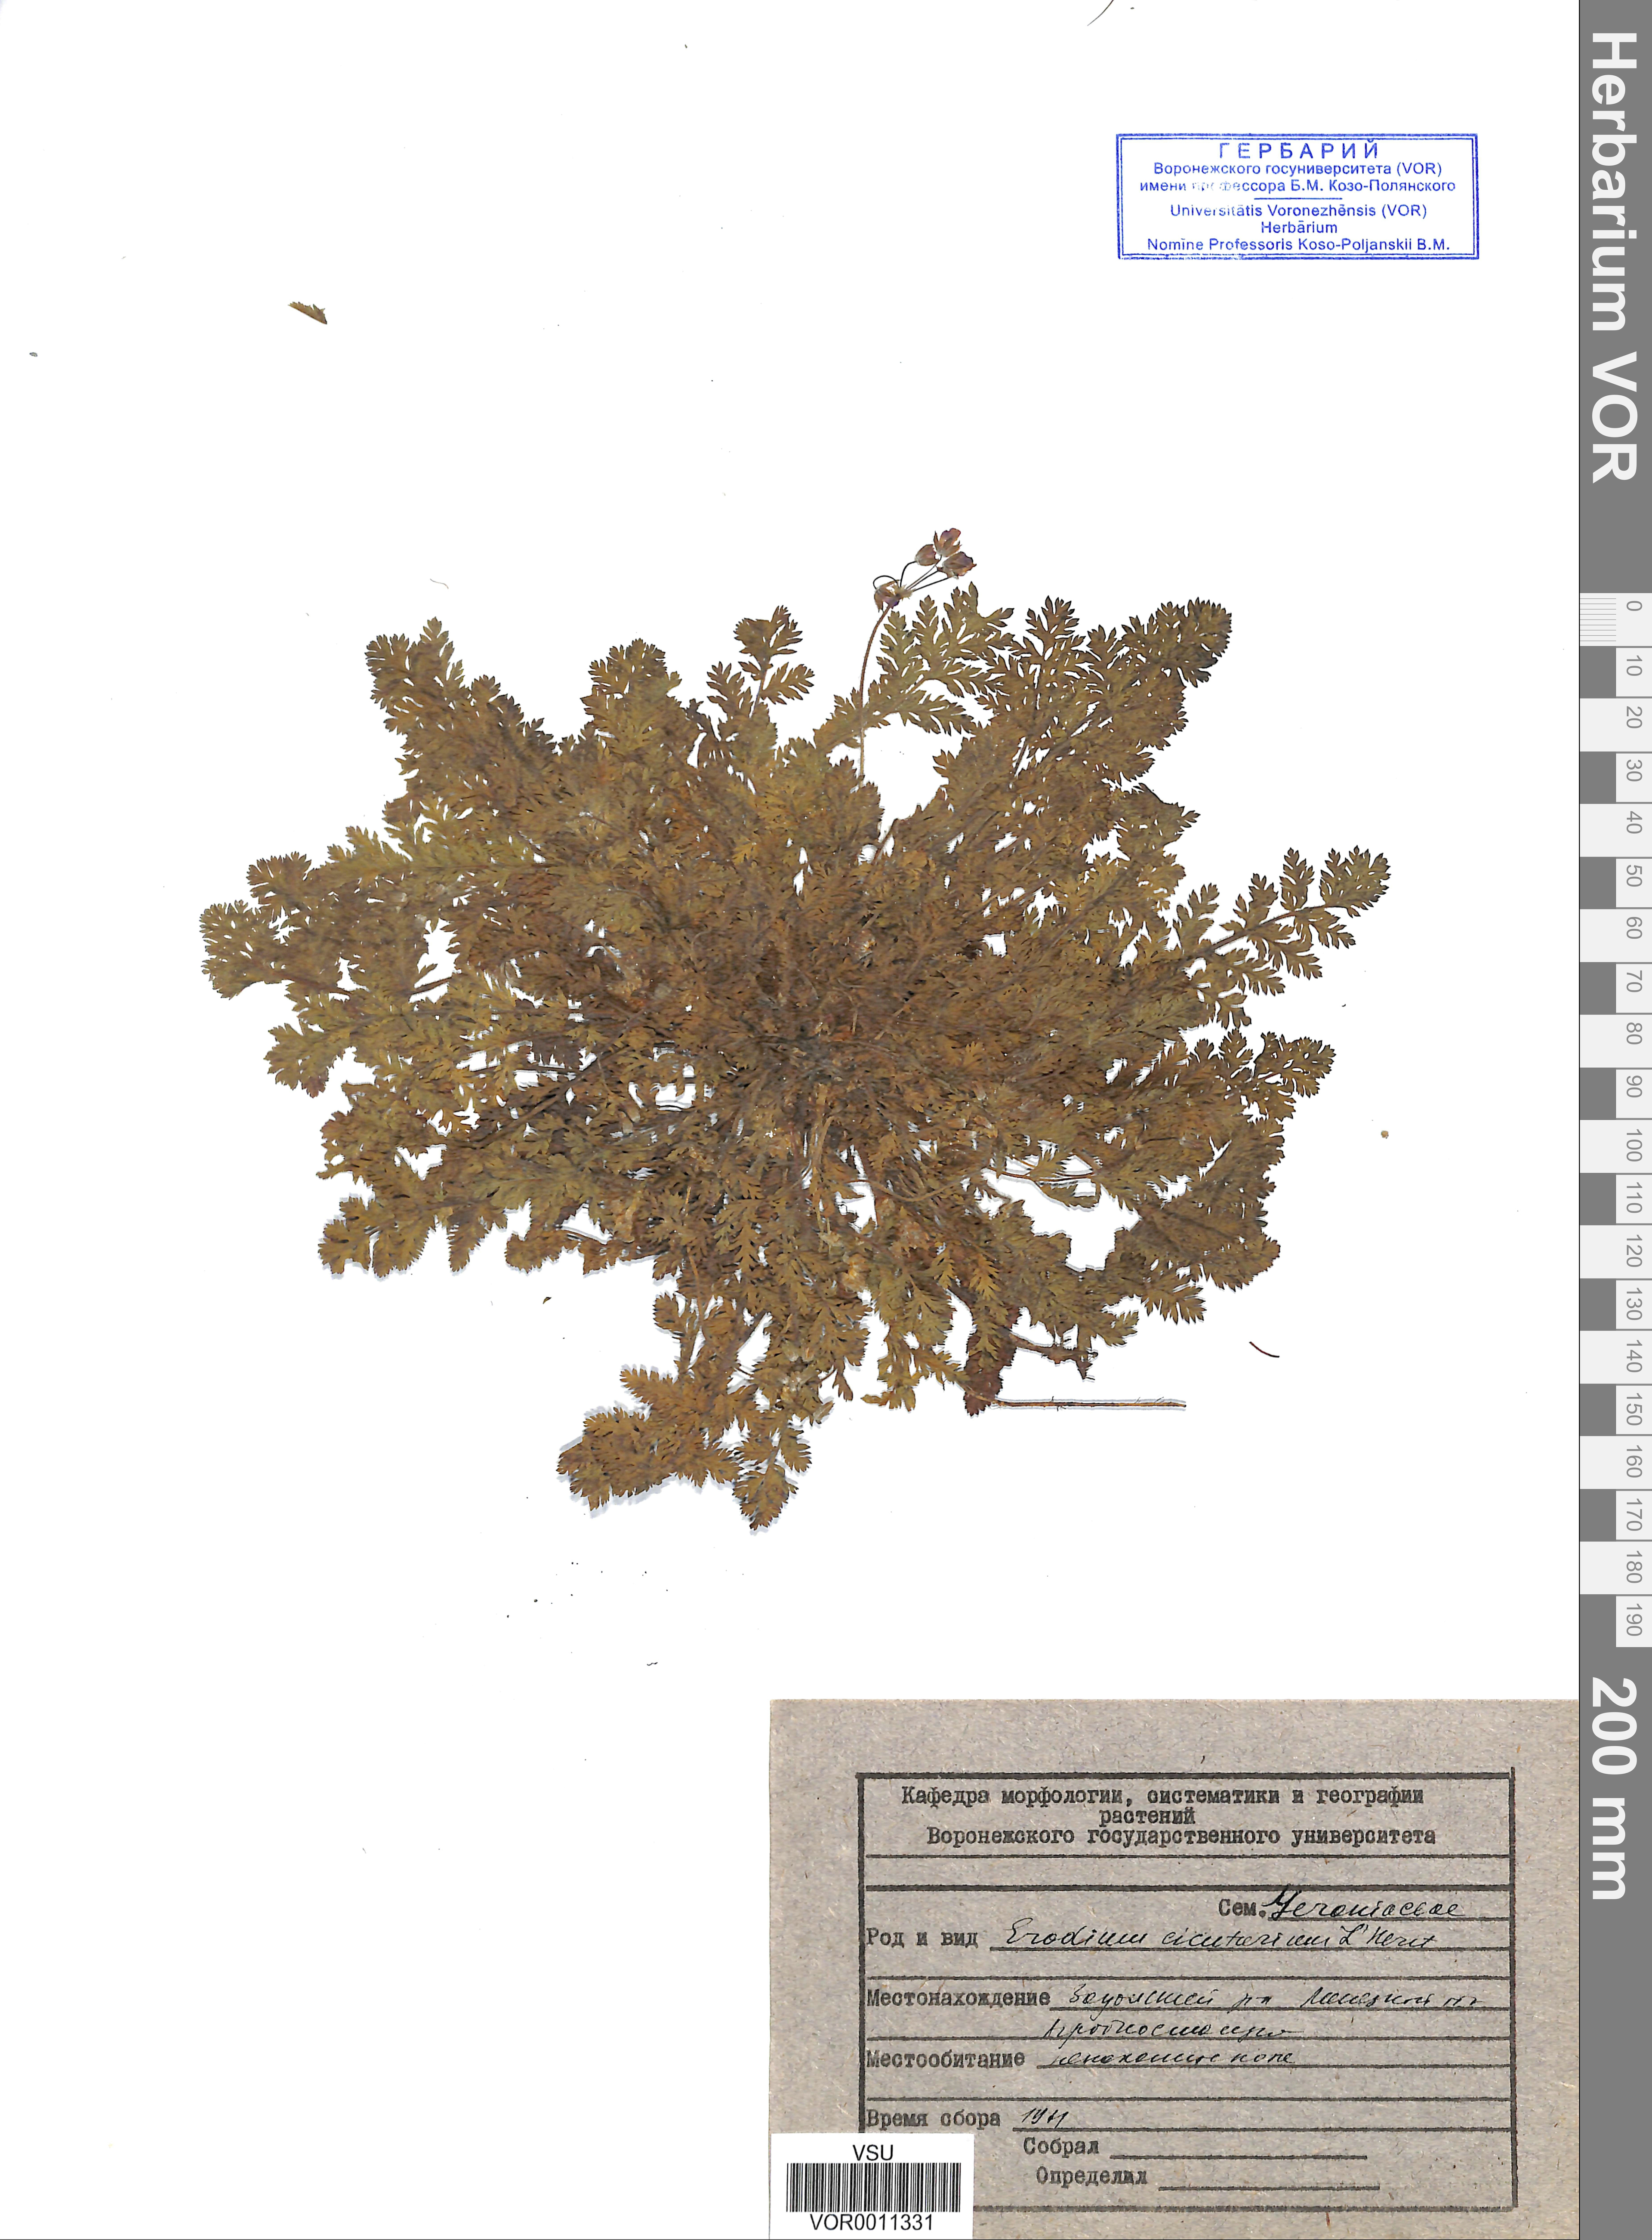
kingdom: Plantae
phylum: Tracheophyta
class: Magnoliopsida
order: Geraniales
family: Geraniaceae
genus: Erodium
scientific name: Erodium cicutarium
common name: Common stork's-bill
